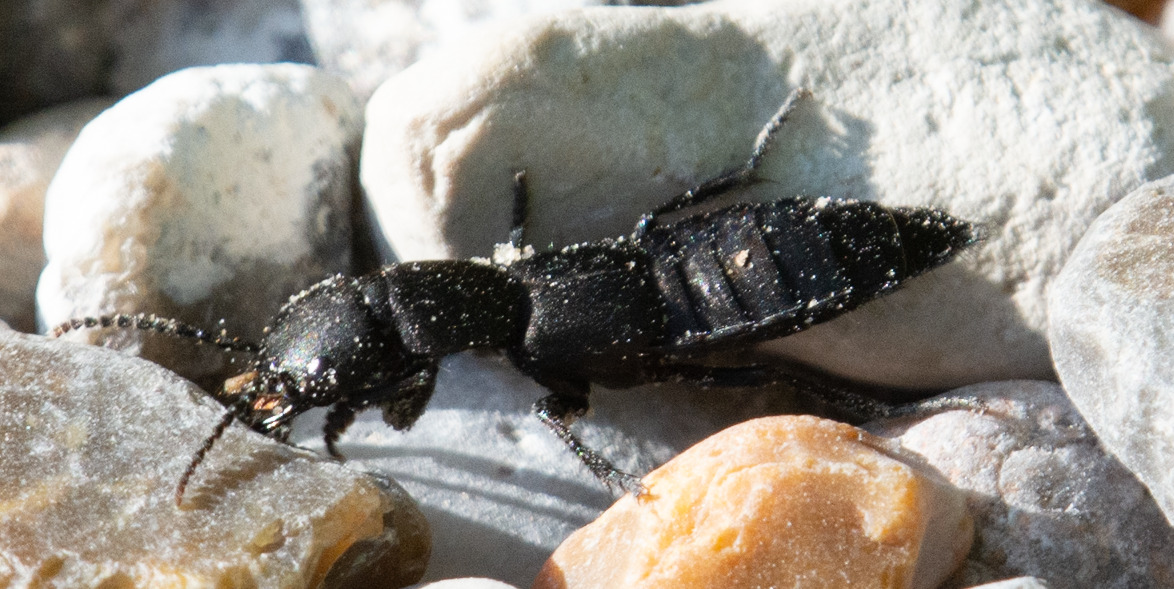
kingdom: Animalia
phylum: Arthropoda
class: Insecta
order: Coleoptera
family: Staphylinidae
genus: Ocypus
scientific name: Ocypus olens
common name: Stor rovbille
